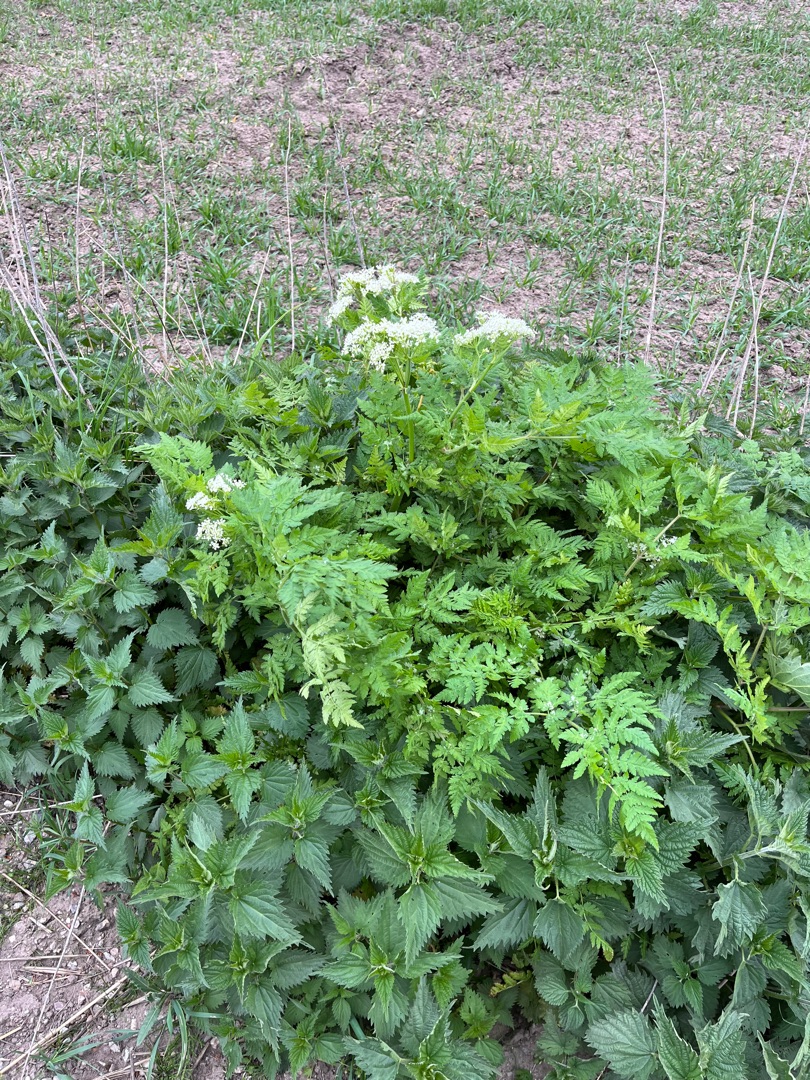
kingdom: Plantae
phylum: Tracheophyta
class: Magnoliopsida
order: Apiales
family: Apiaceae
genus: Myrrhis
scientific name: Myrrhis odorata
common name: Sødskærm
